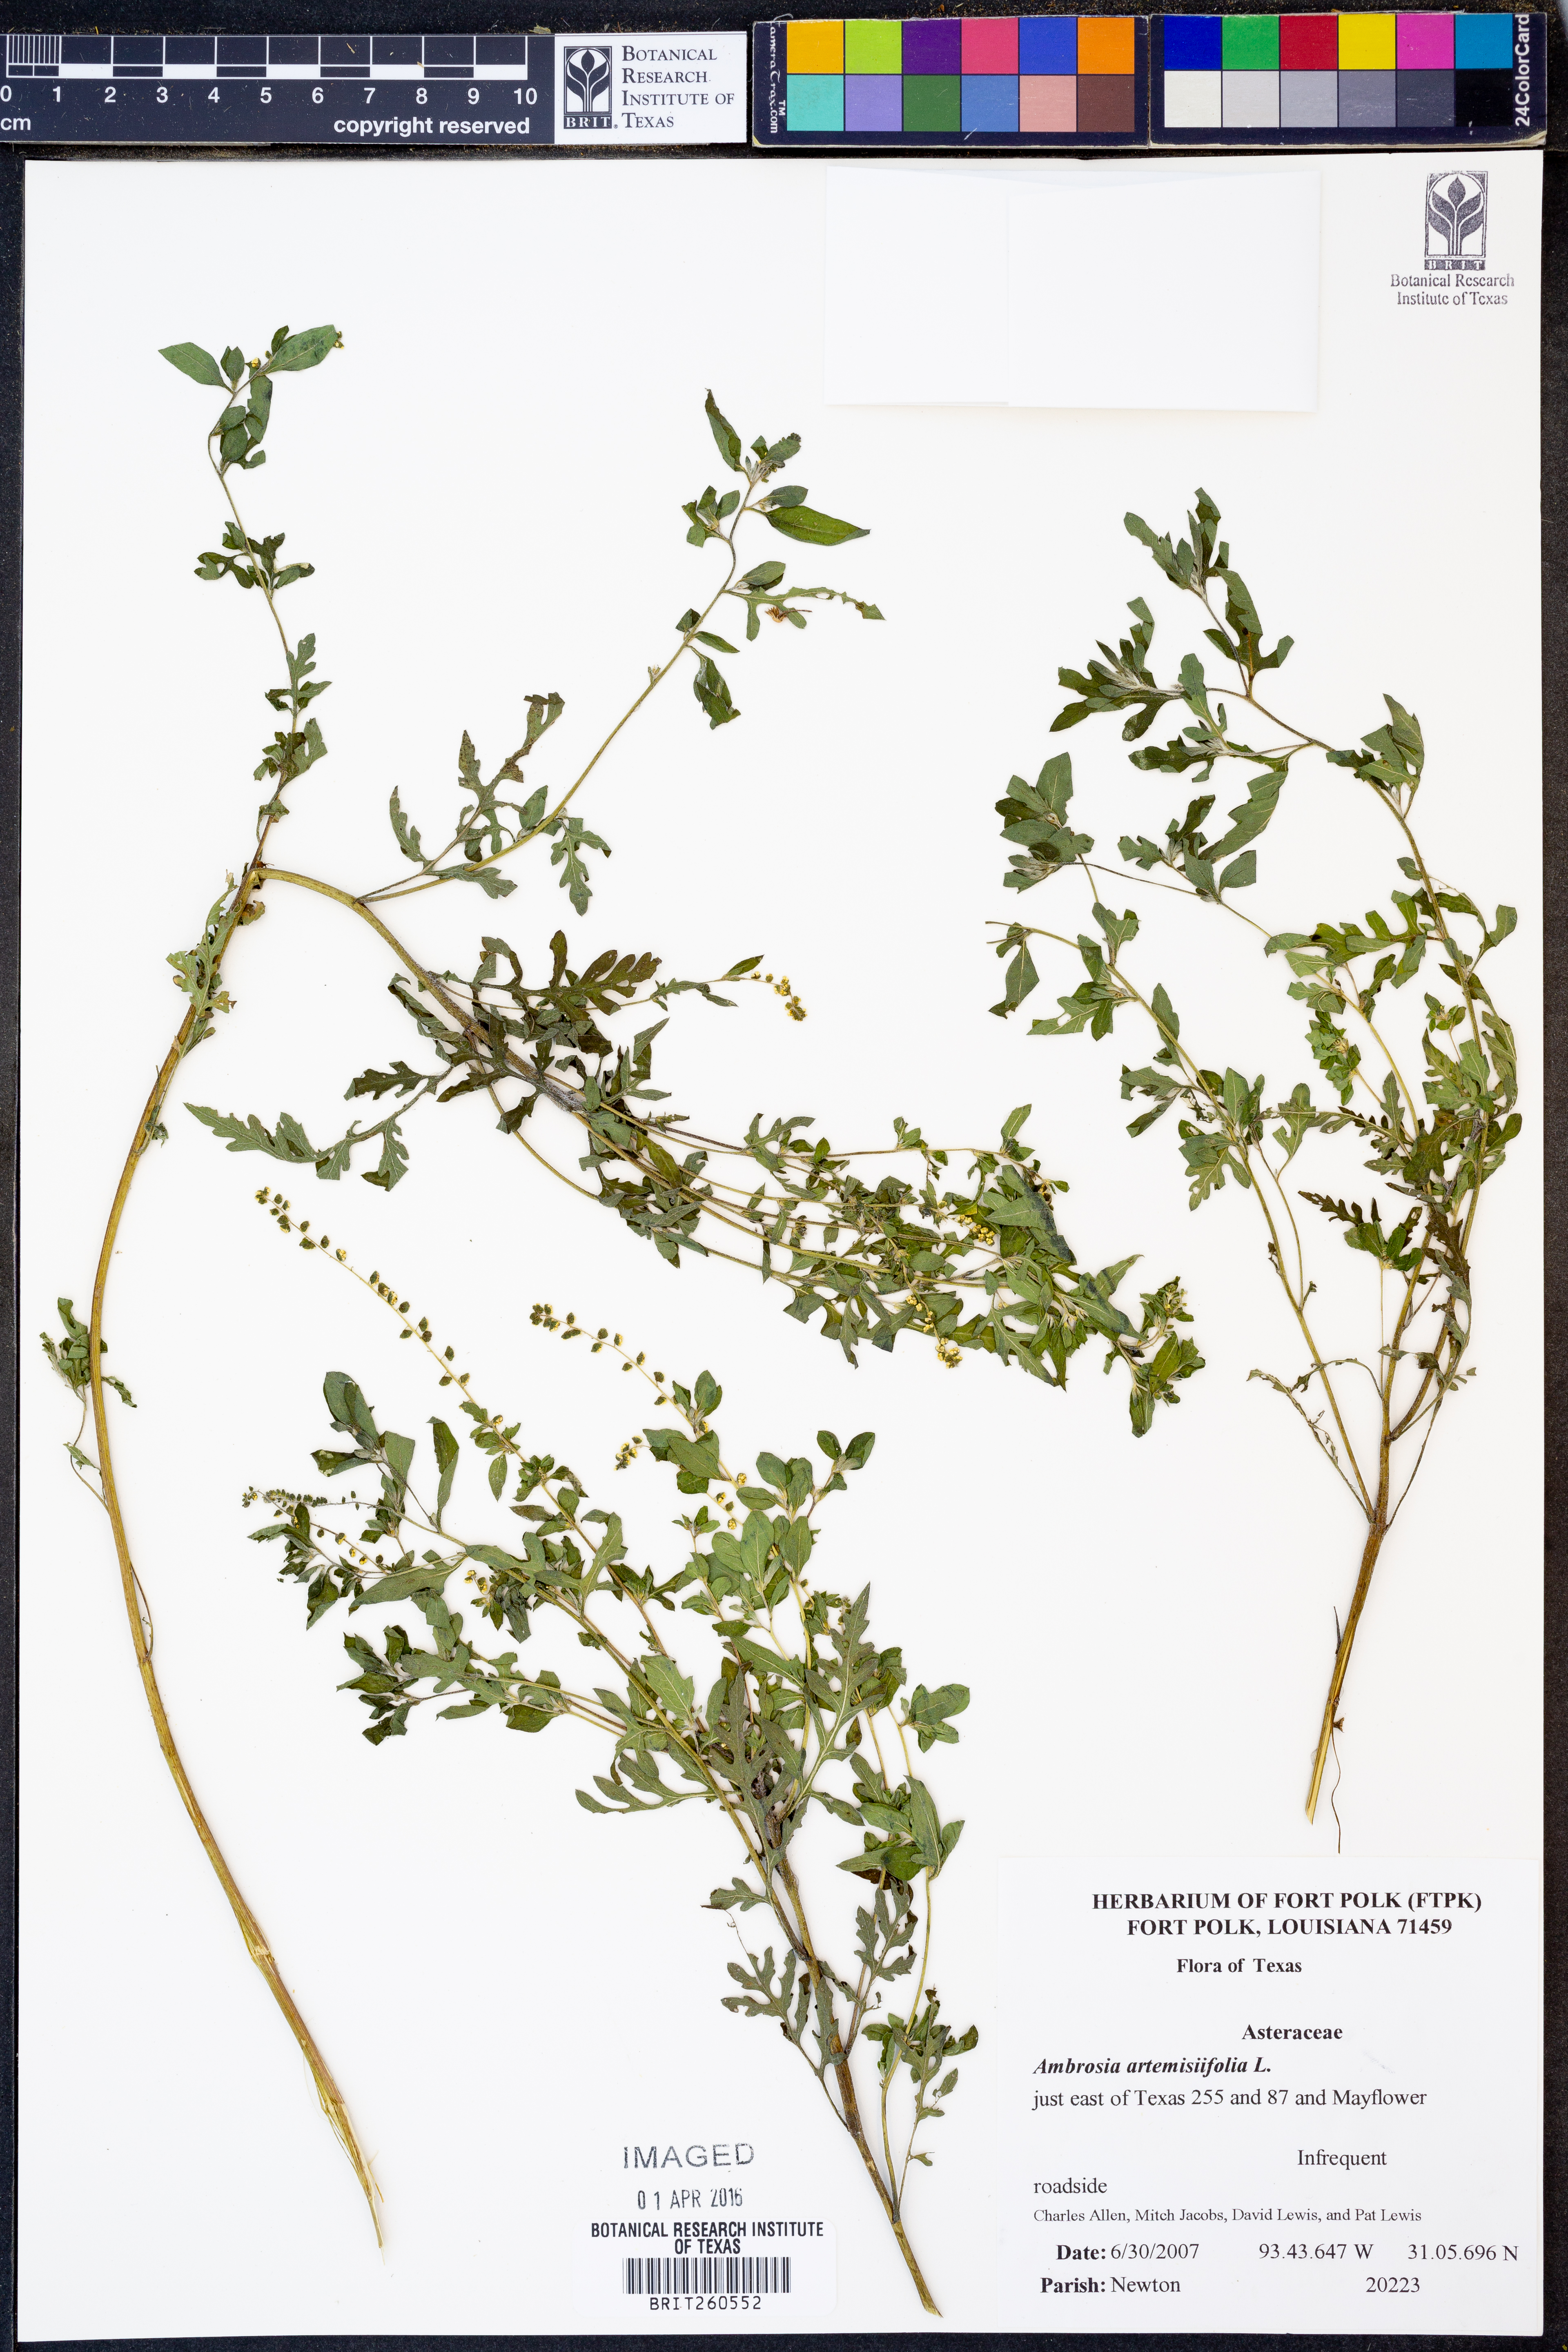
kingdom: Plantae
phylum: Tracheophyta
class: Magnoliopsida
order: Asterales
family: Asteraceae
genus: Ambrosia
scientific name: Ambrosia artemisiifolia
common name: Annual ragweed
